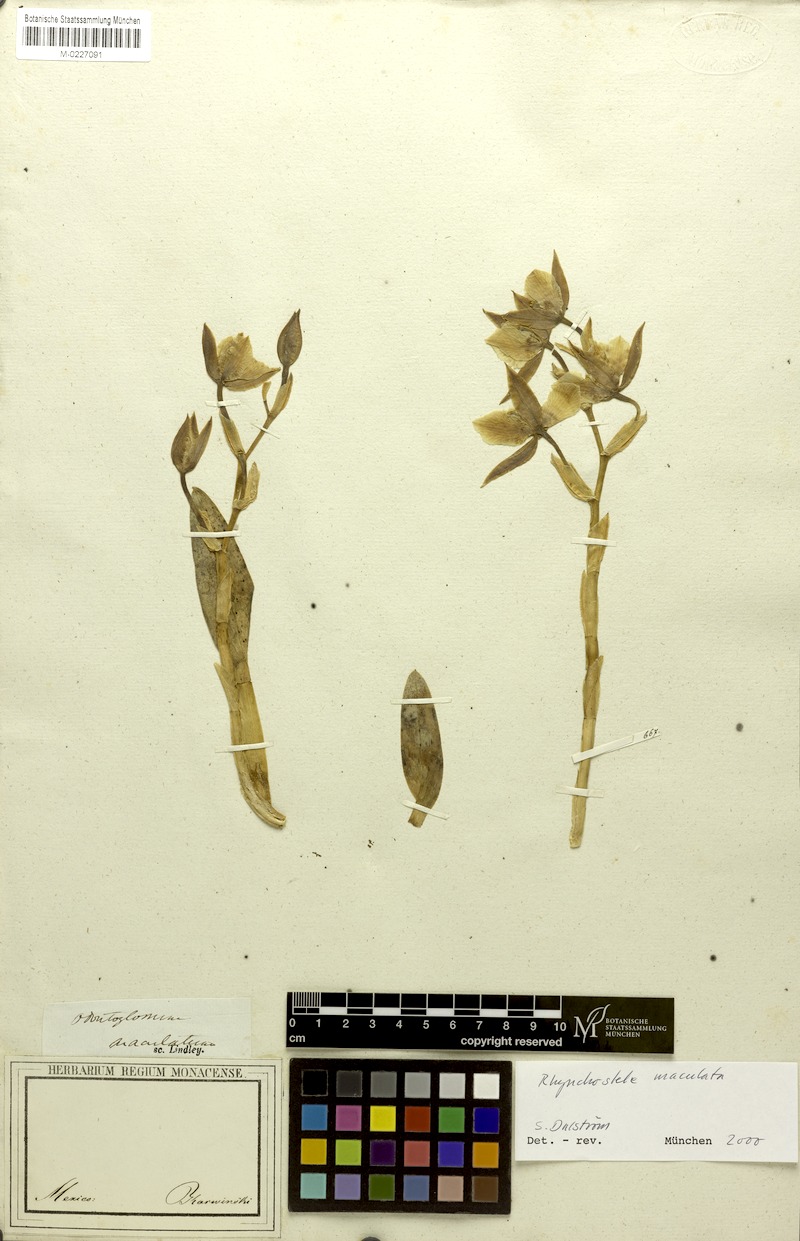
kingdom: Plantae
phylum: Tracheophyta
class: Liliopsida
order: Asparagales
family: Orchidaceae
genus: Rhynchostele
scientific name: Rhynchostele maculata
